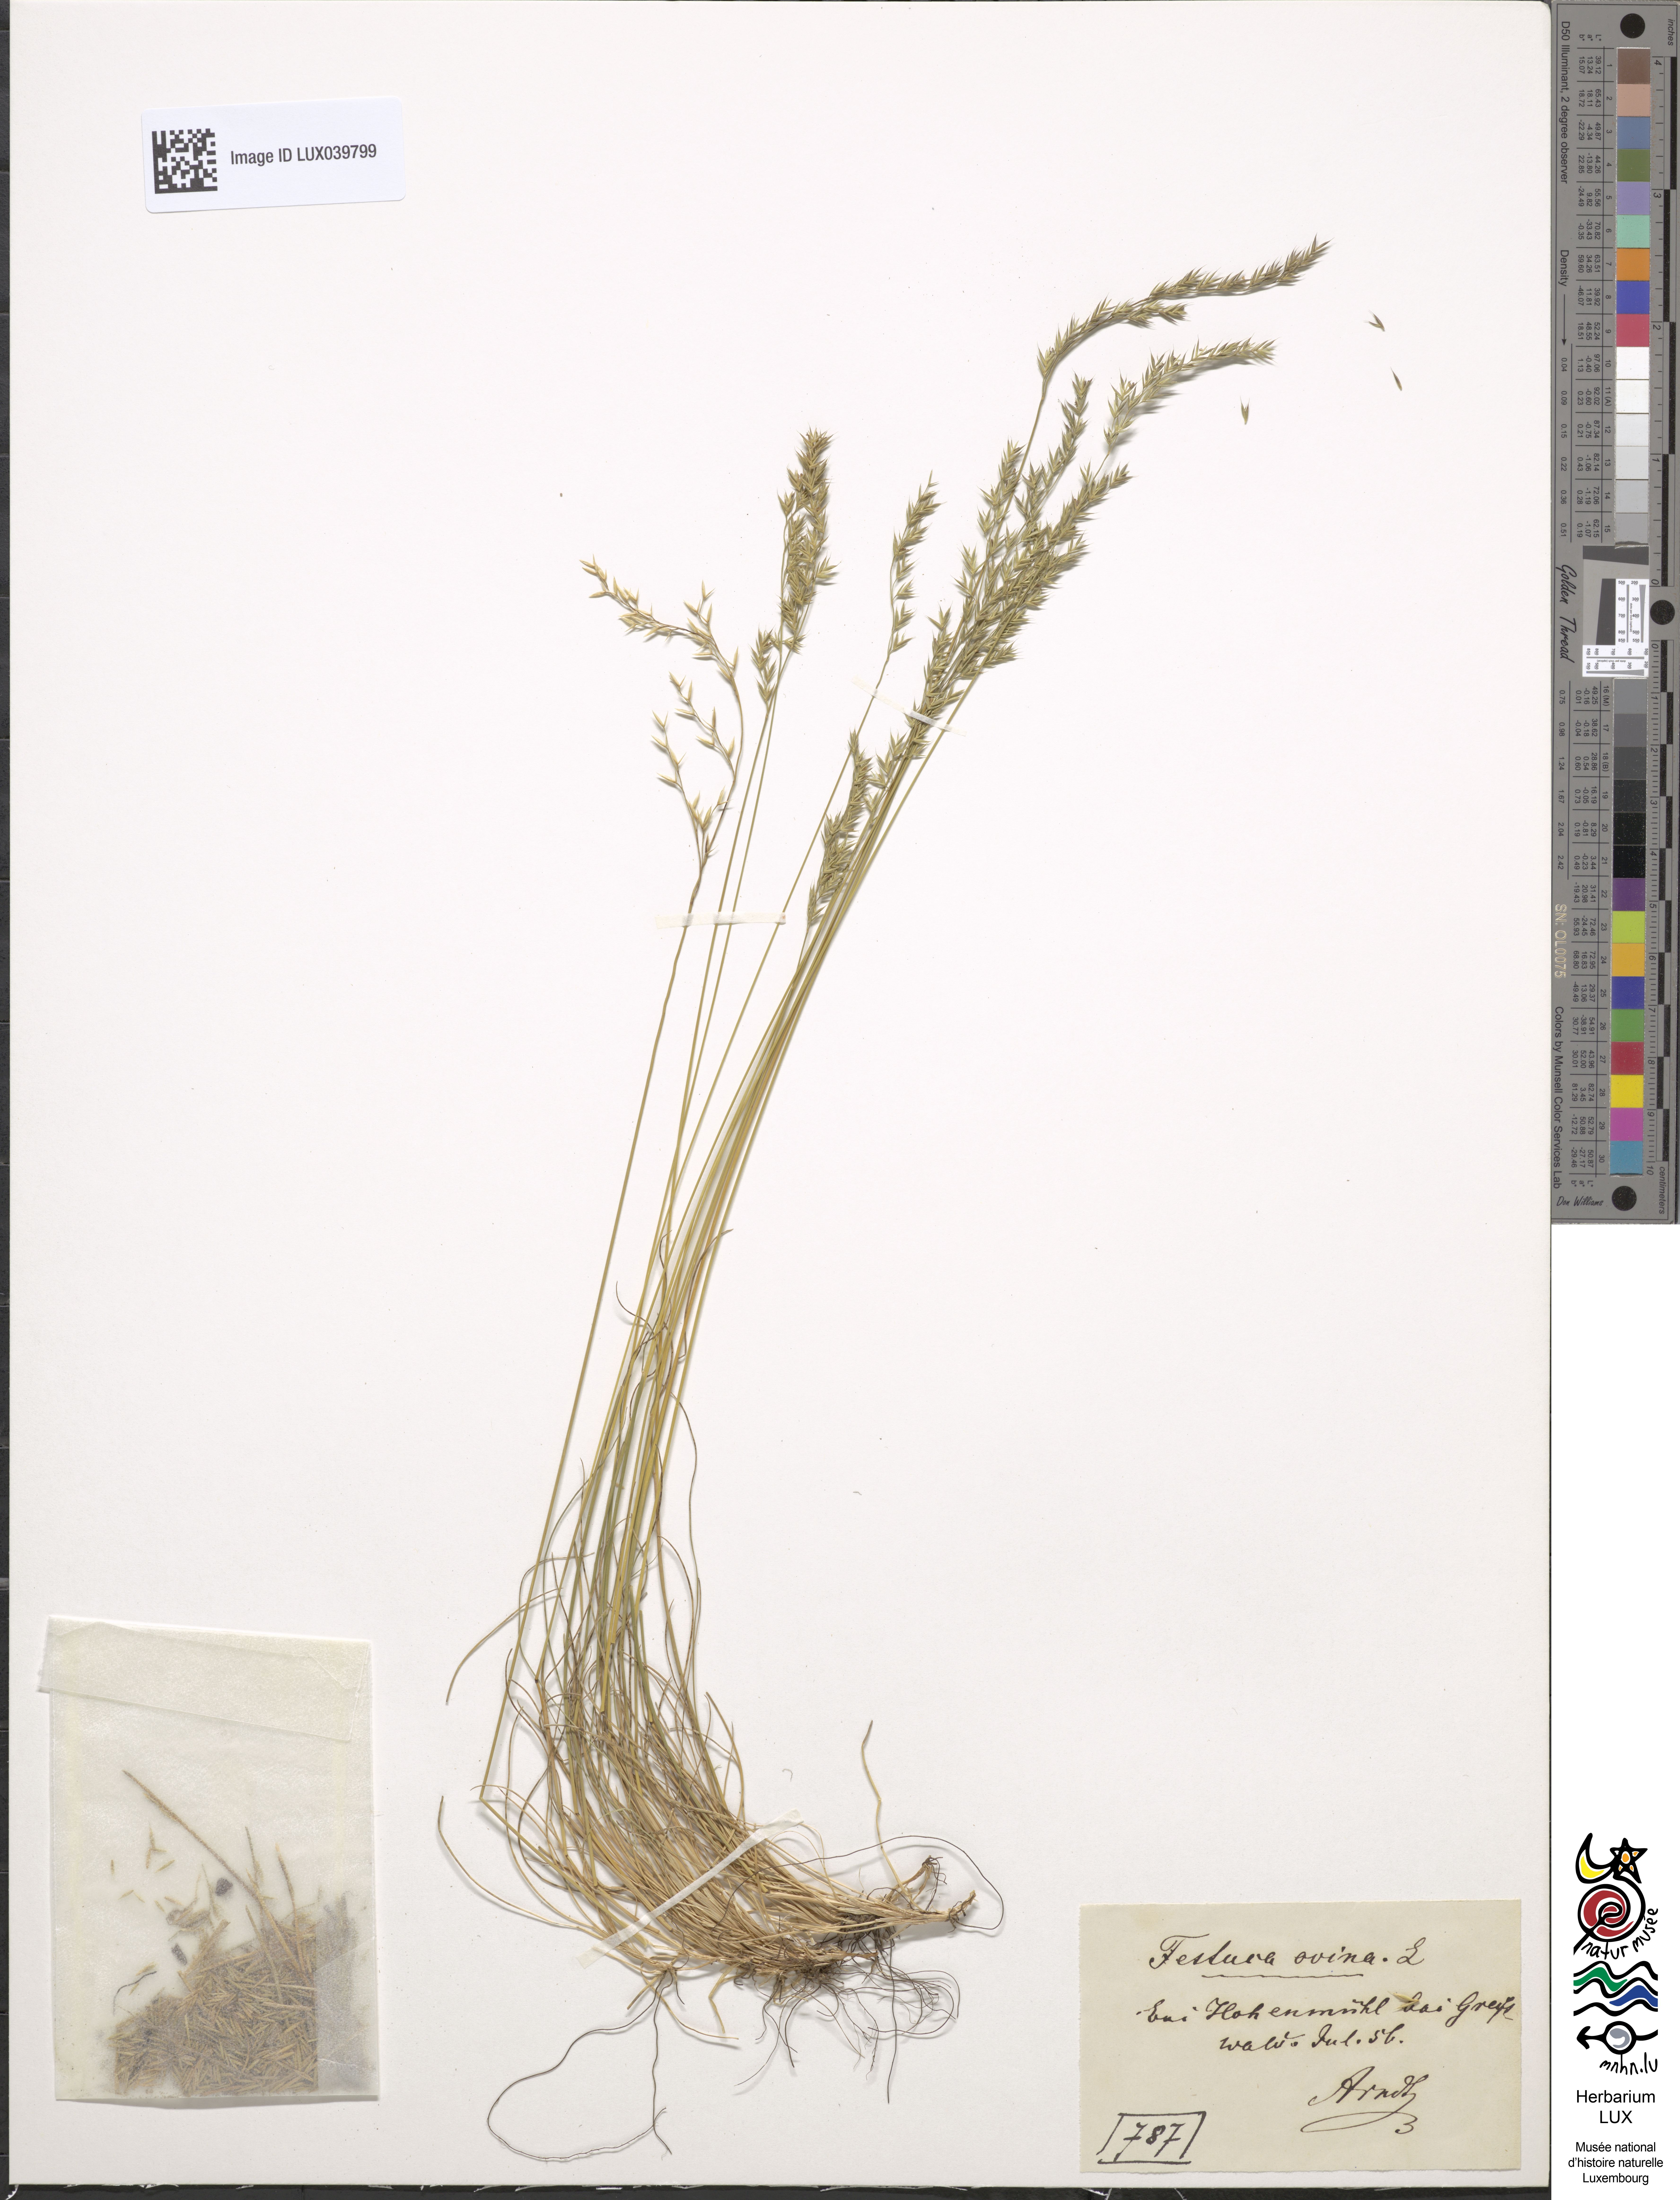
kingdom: Plantae
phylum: Tracheophyta
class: Liliopsida
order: Poales
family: Poaceae
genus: Festuca
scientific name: Festuca ovina
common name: Sheep fescue
